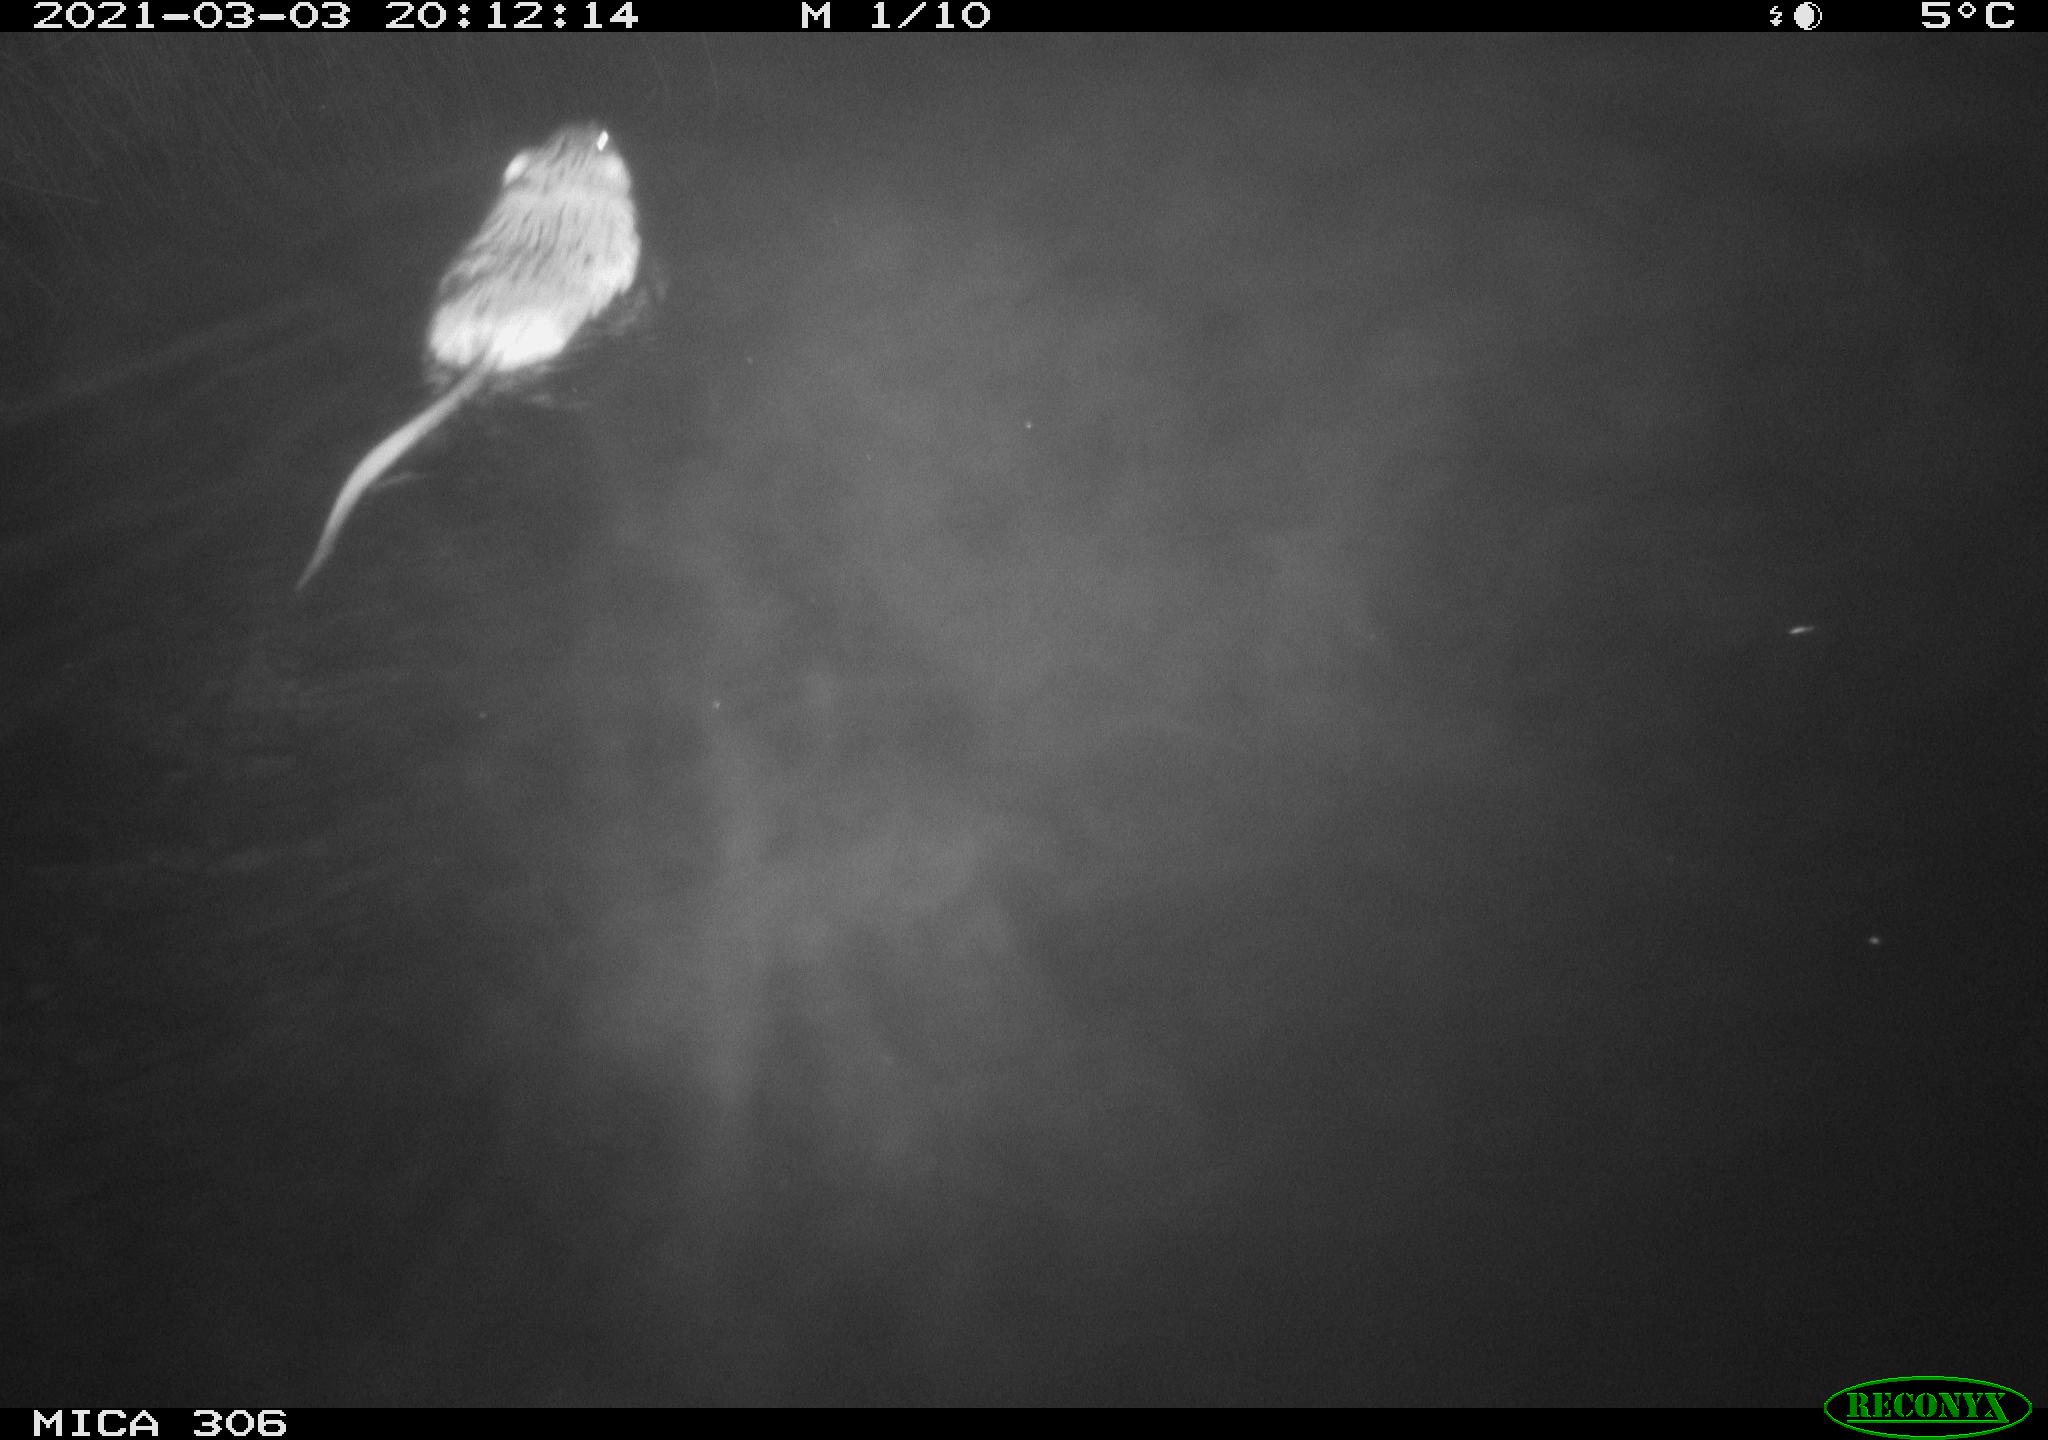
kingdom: Animalia
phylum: Chordata
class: Mammalia
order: Rodentia
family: Cricetidae
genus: Ondatra
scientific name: Ondatra zibethicus
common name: Muskrat
